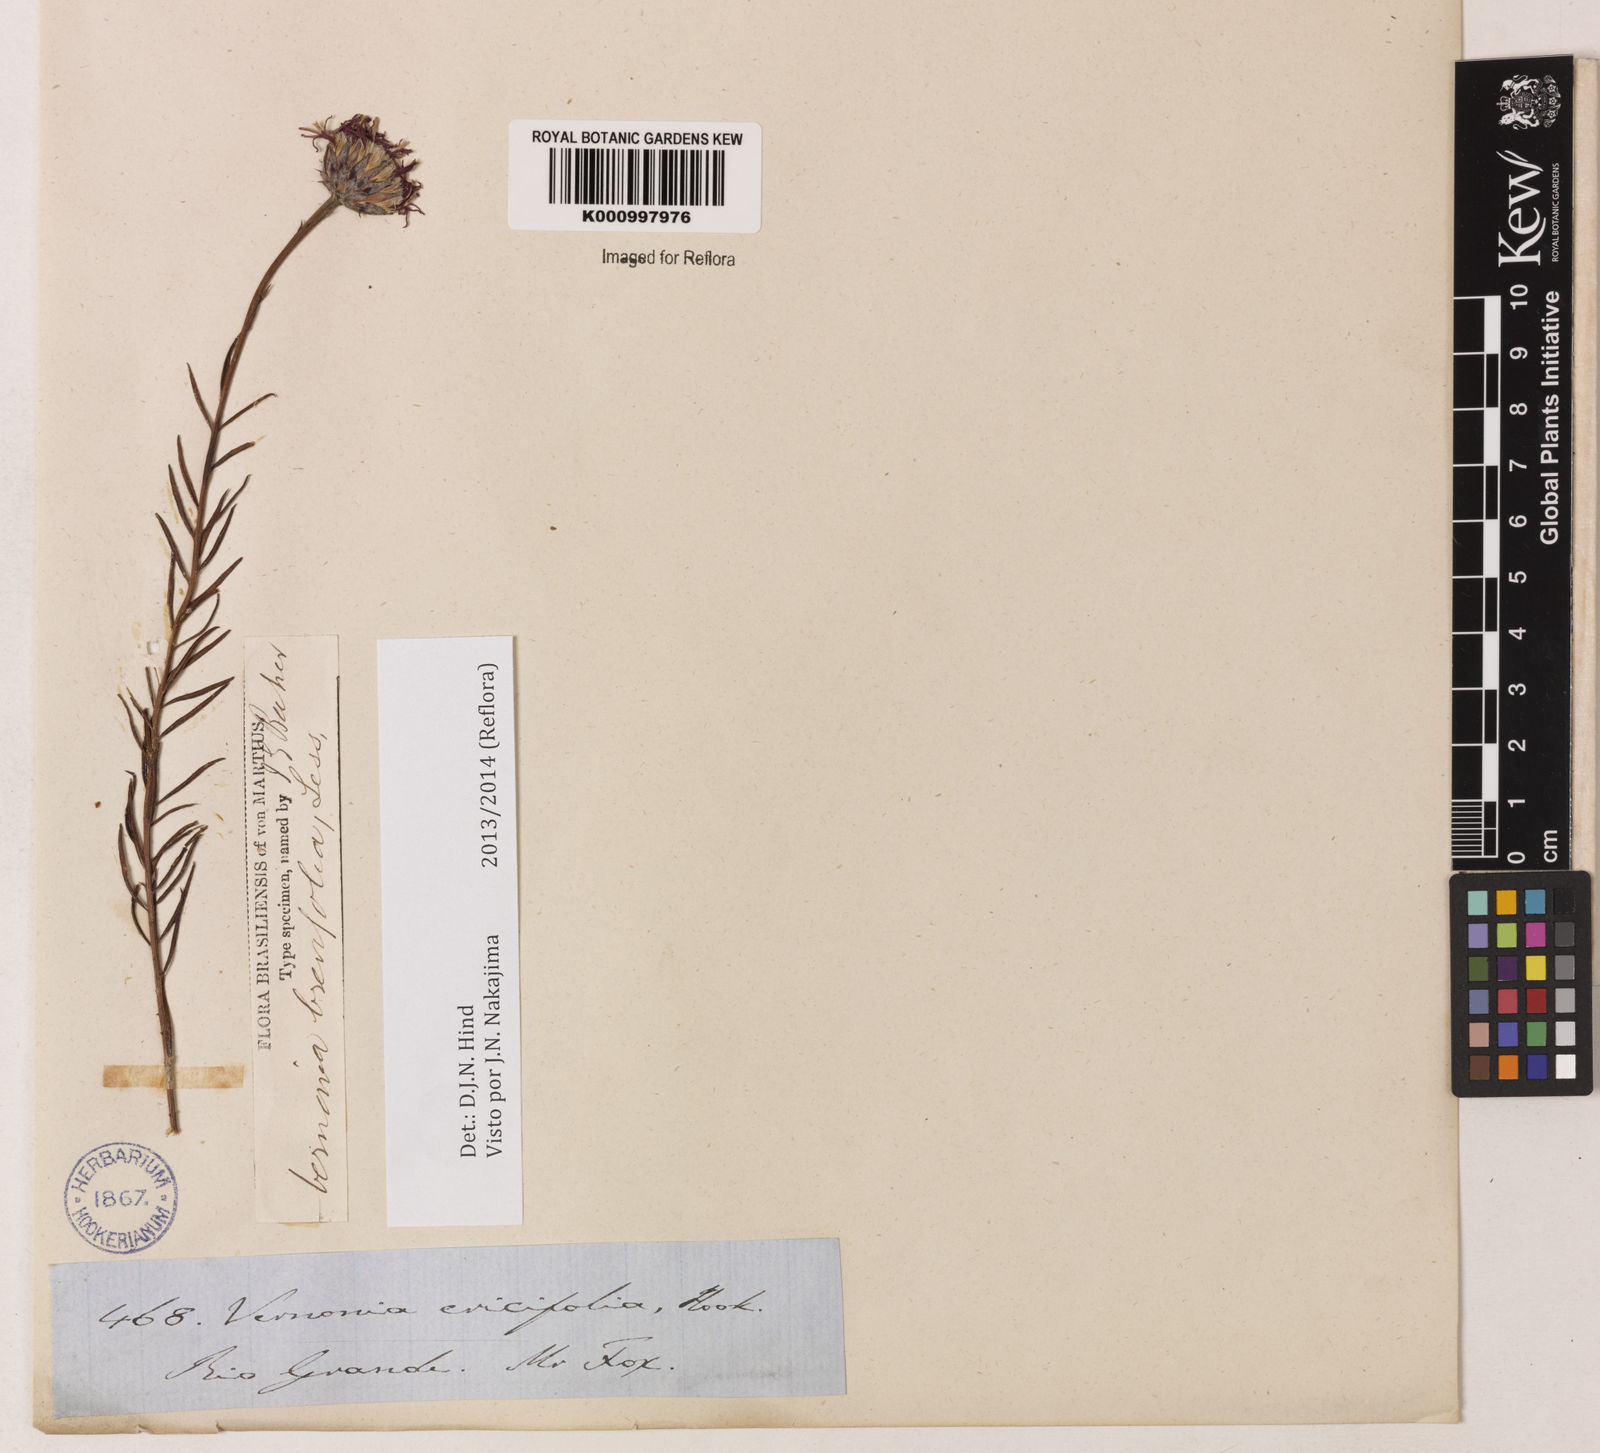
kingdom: Plantae
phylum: Tracheophyta
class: Magnoliopsida
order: Asterales
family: Asteraceae
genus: Lessingianthus
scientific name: Lessingianthus brevifolius
